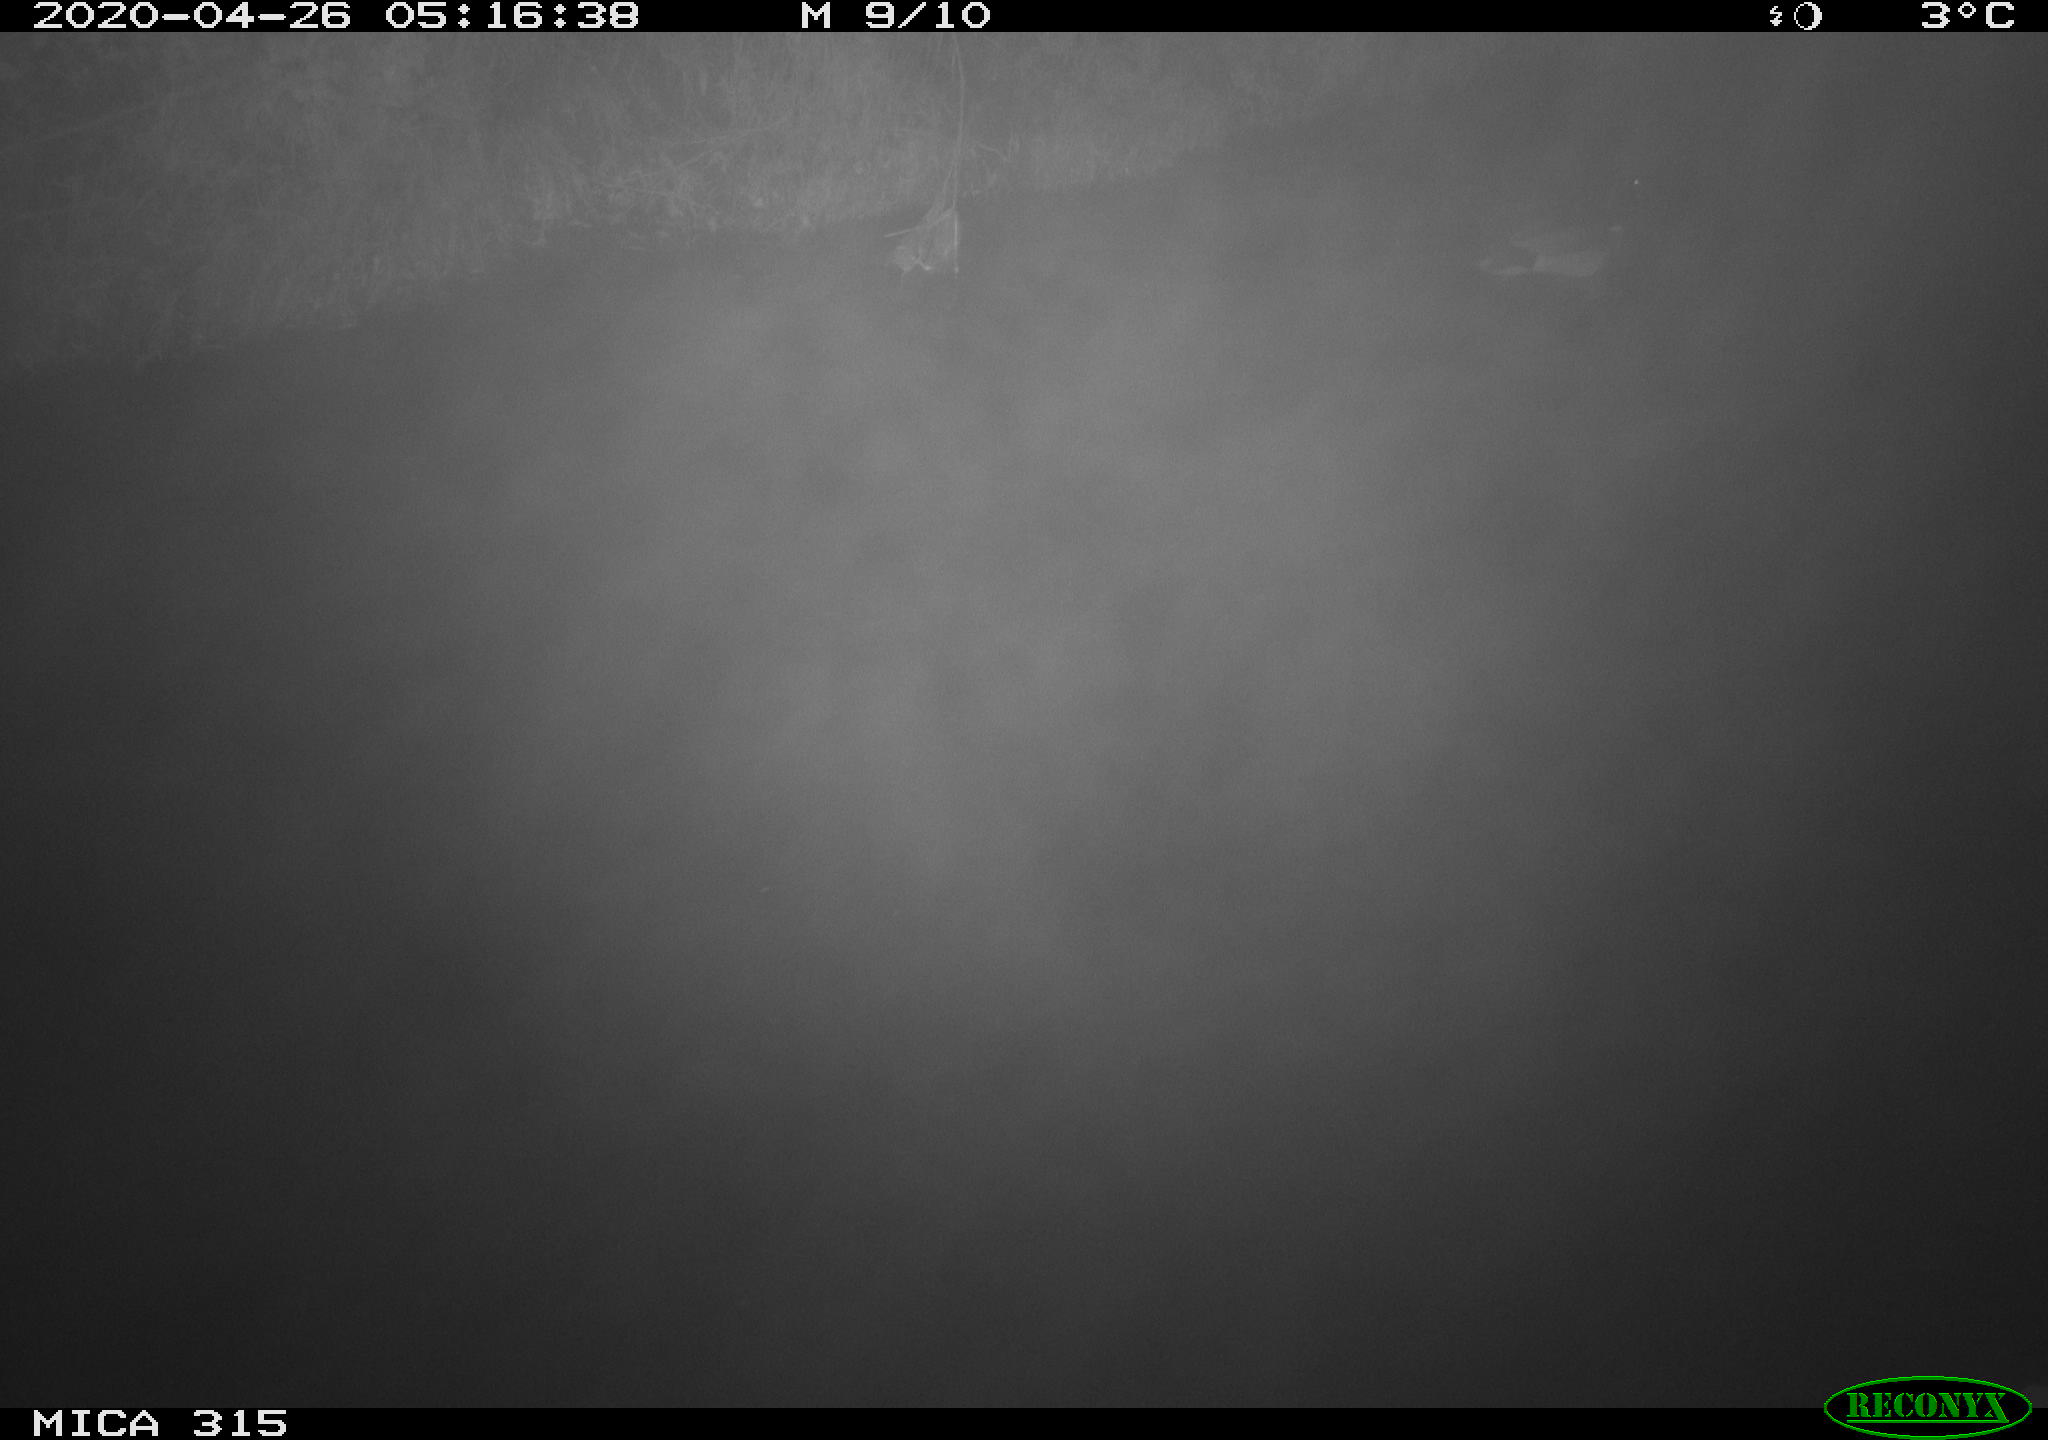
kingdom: Animalia
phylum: Chordata
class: Aves
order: Anseriformes
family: Anatidae
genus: Anas
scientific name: Anas platyrhynchos
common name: Mallard
